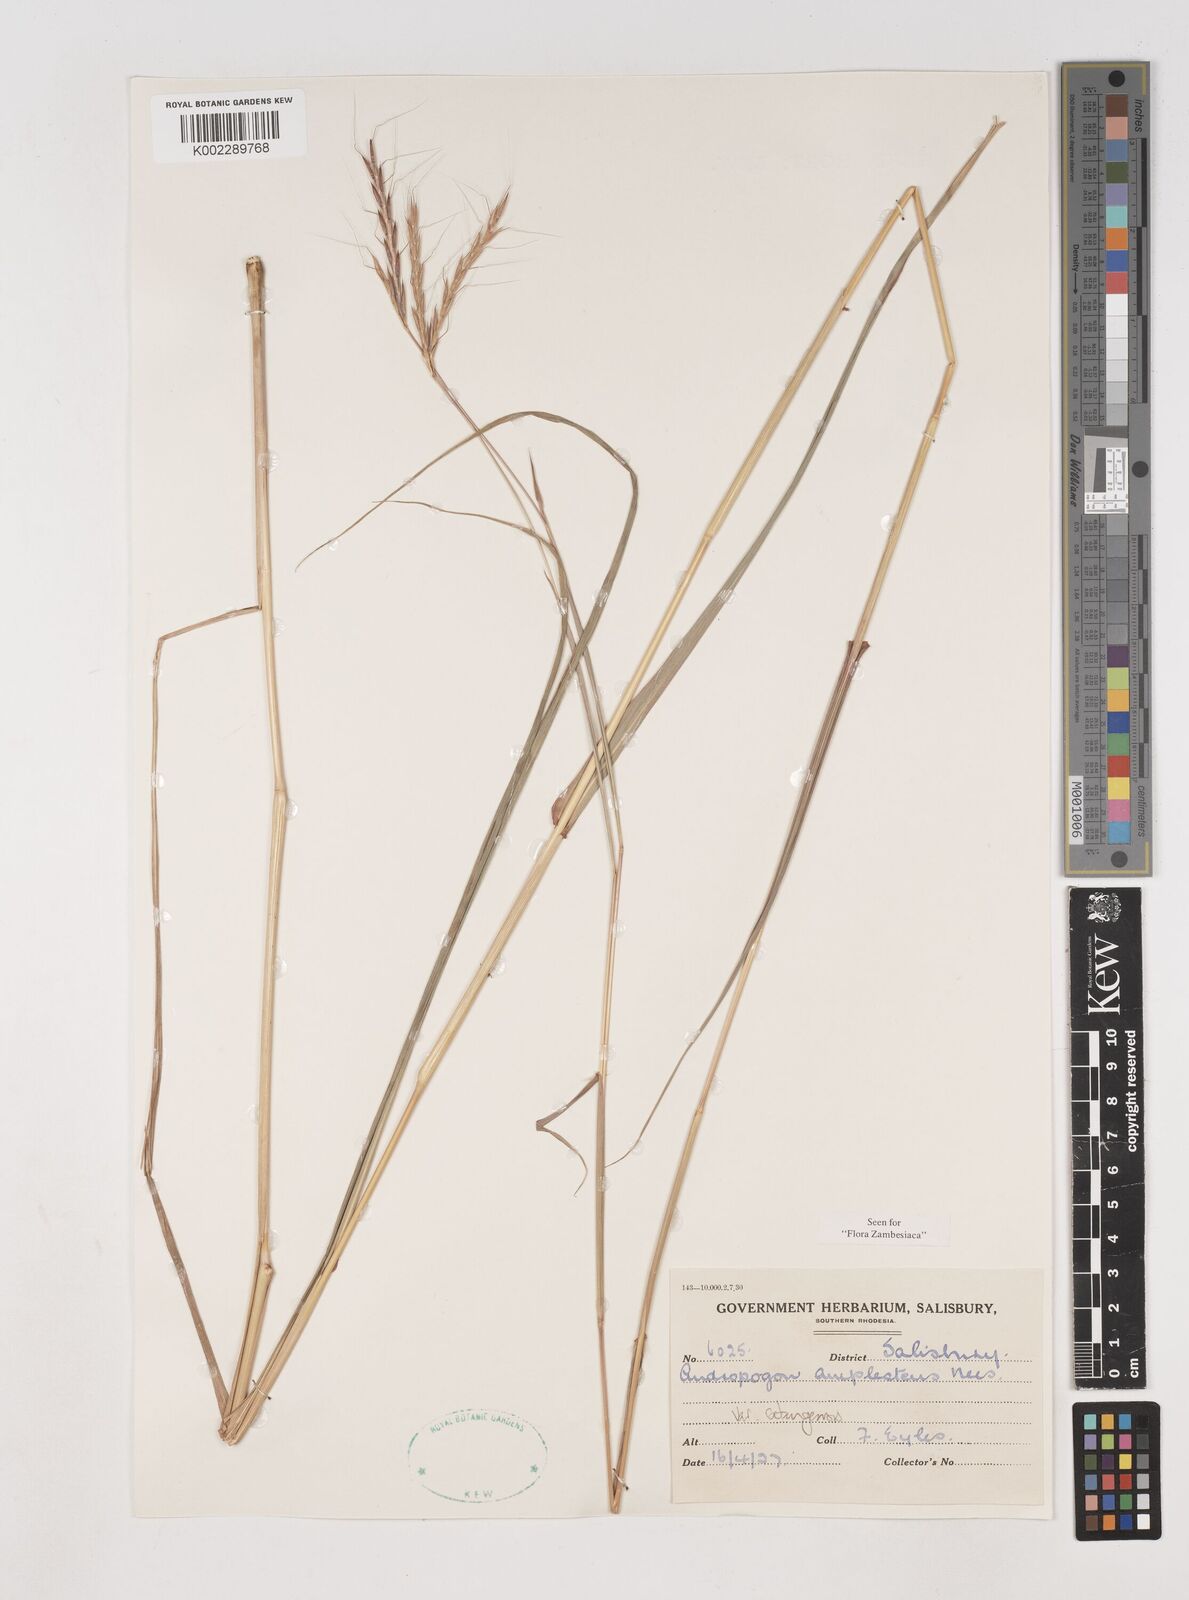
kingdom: Plantae
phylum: Tracheophyta
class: Liliopsida
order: Poales
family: Poaceae
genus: Diheteropogon
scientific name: Diheteropogon amplectens
